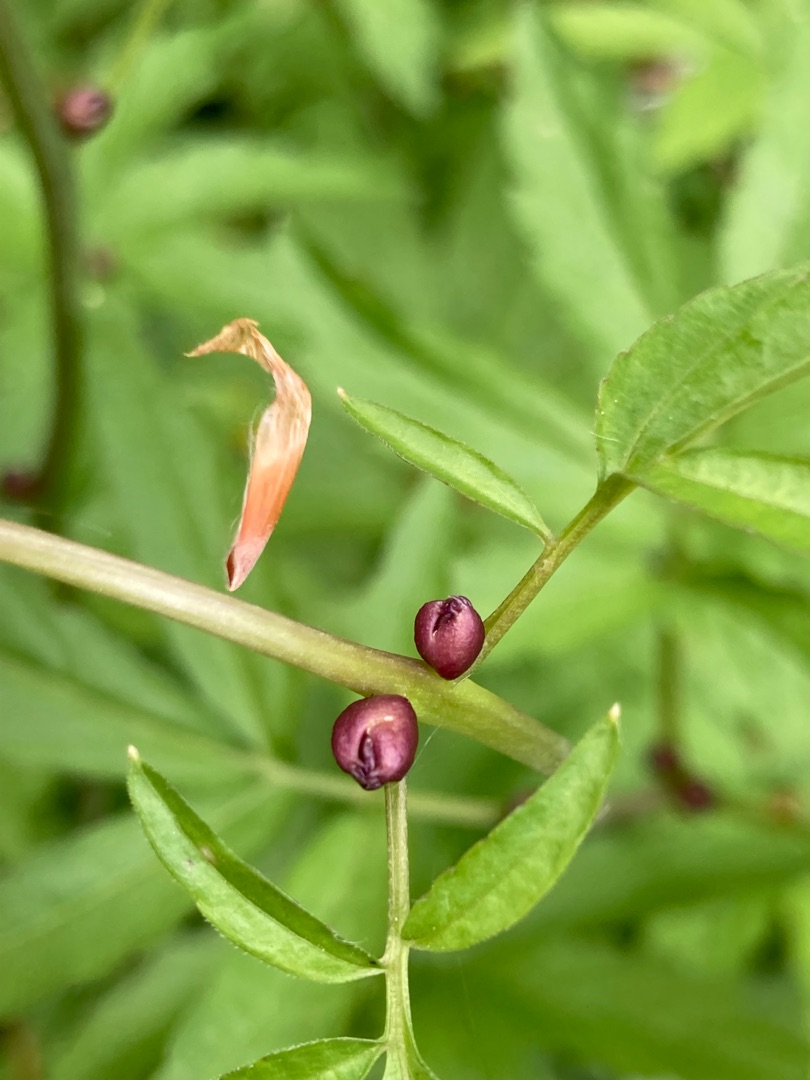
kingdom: Plantae
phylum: Tracheophyta
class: Magnoliopsida
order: Brassicales
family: Brassicaceae
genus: Cardamine
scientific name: Cardamine bulbifera
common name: Tandrod
